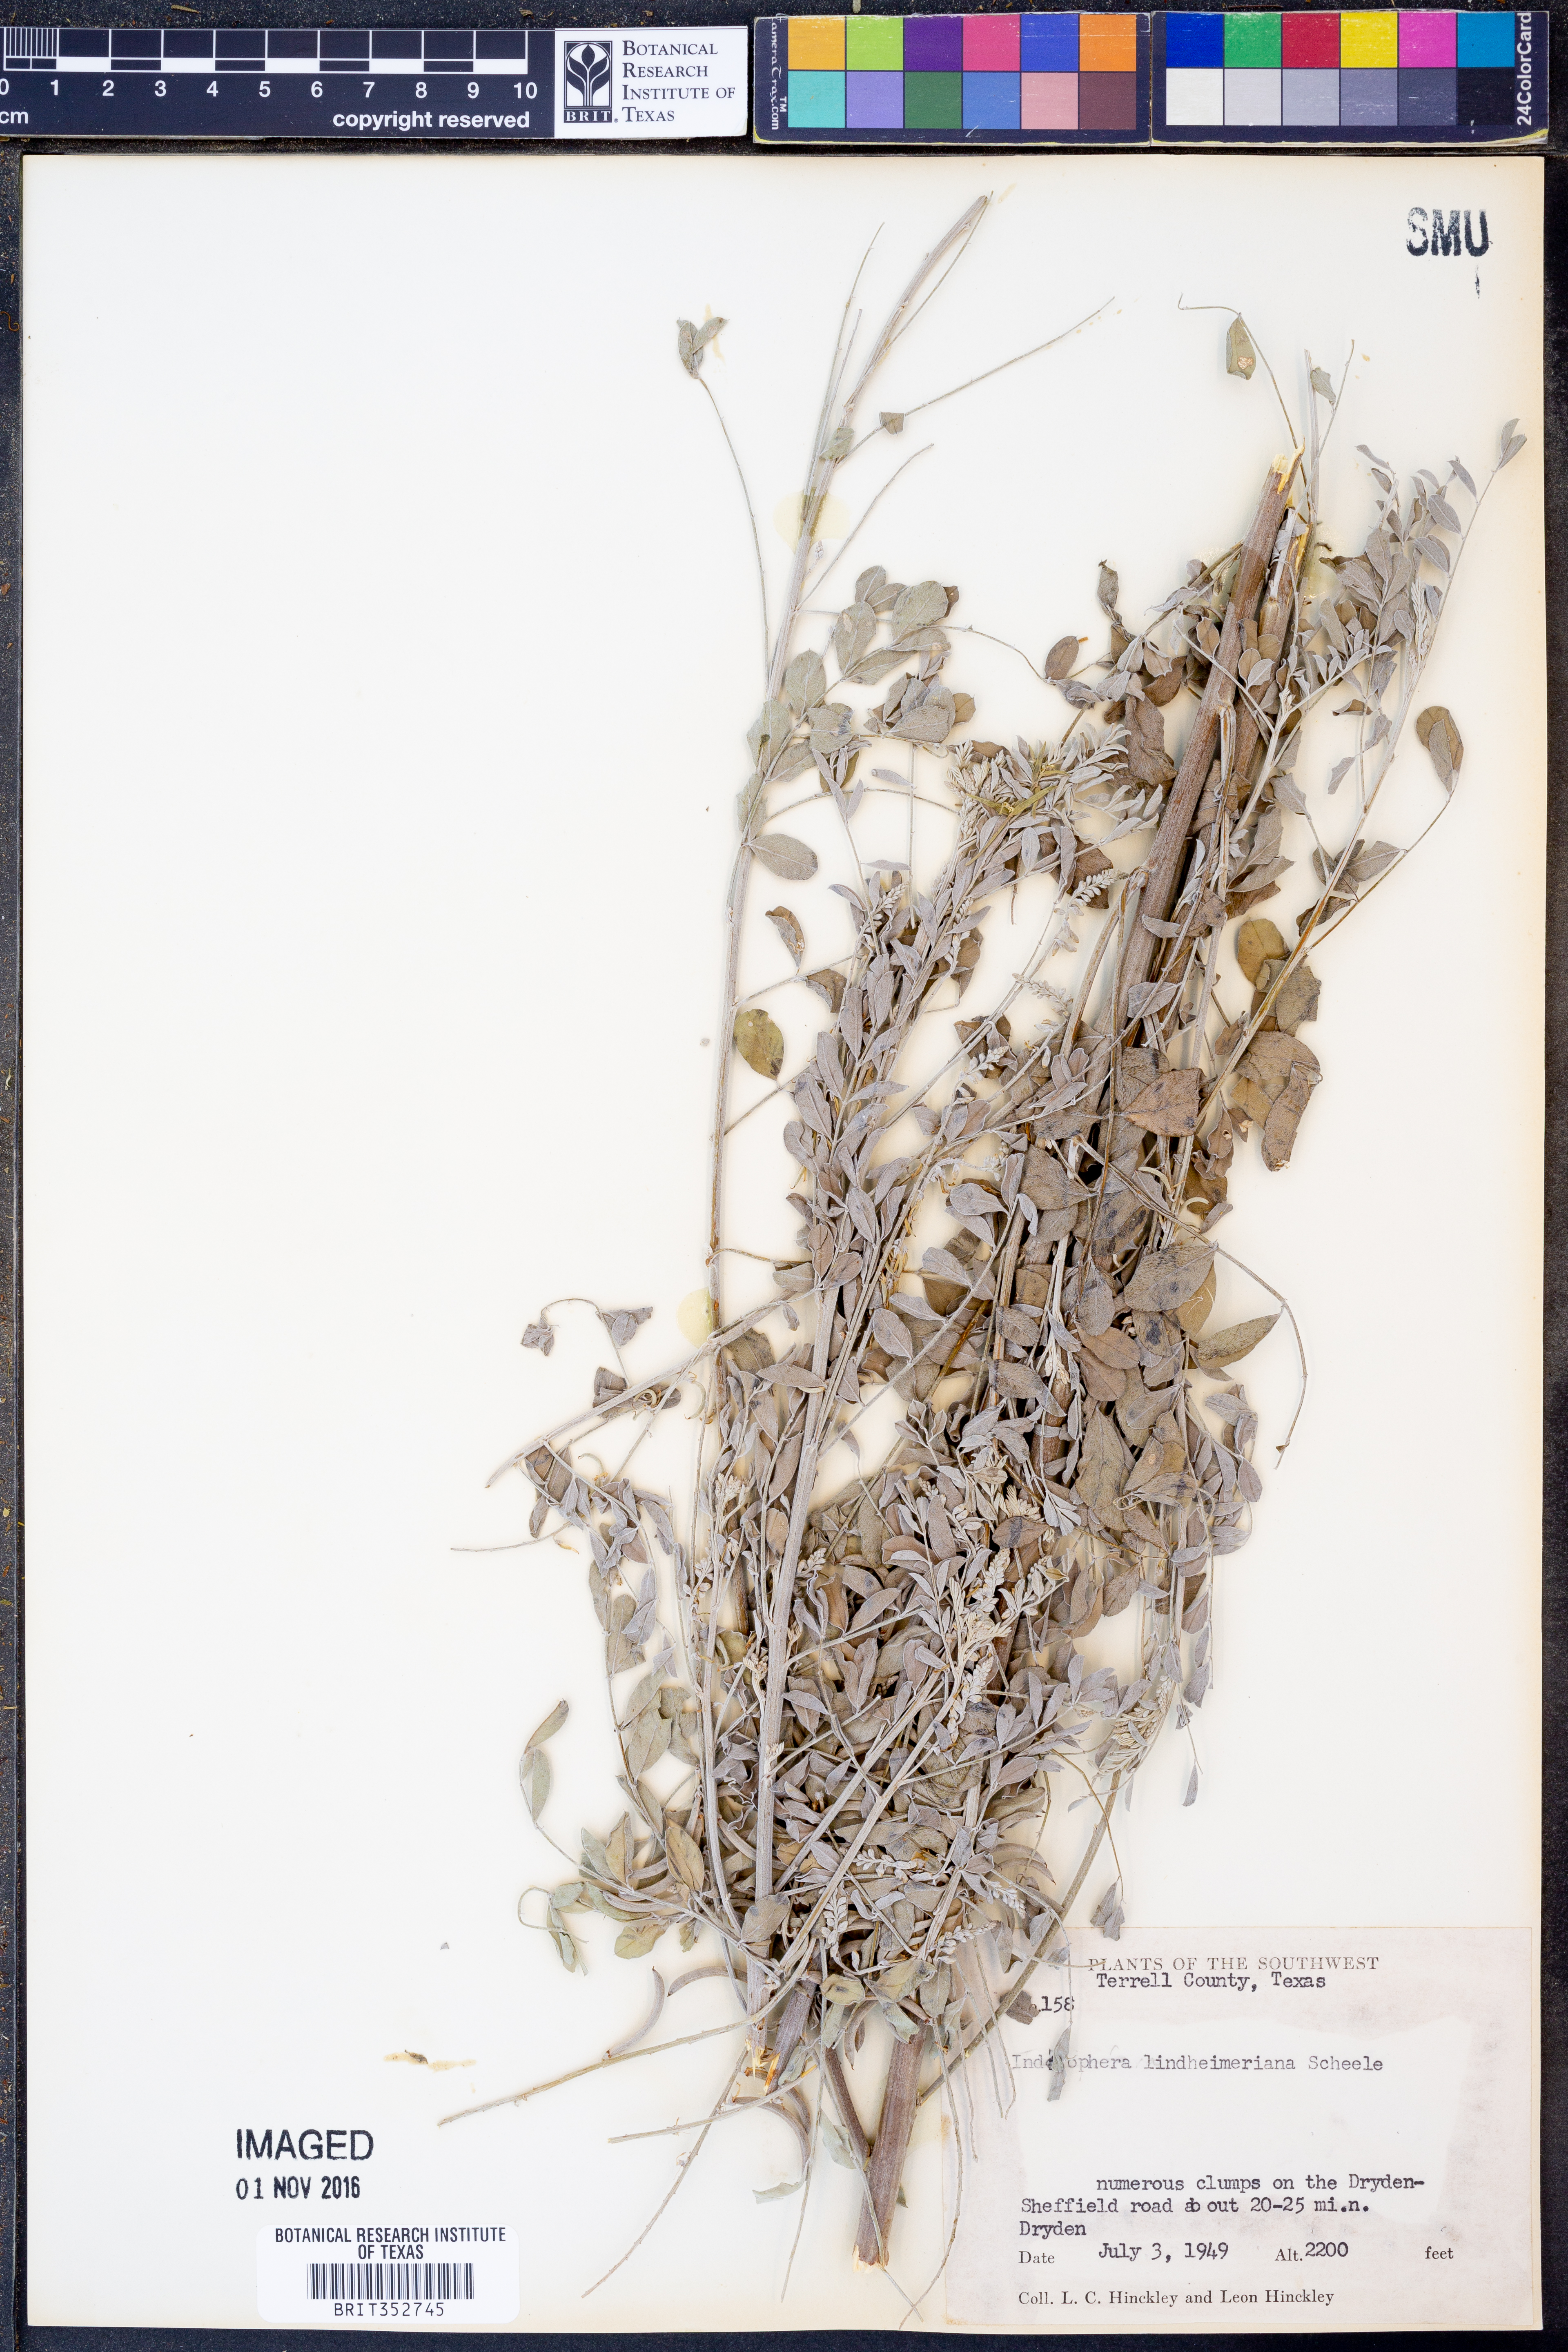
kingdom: Plantae
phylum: Tracheophyta
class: Magnoliopsida
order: Fabales
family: Fabaceae
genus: Indigofera
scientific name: Indigofera lindheimeriana
